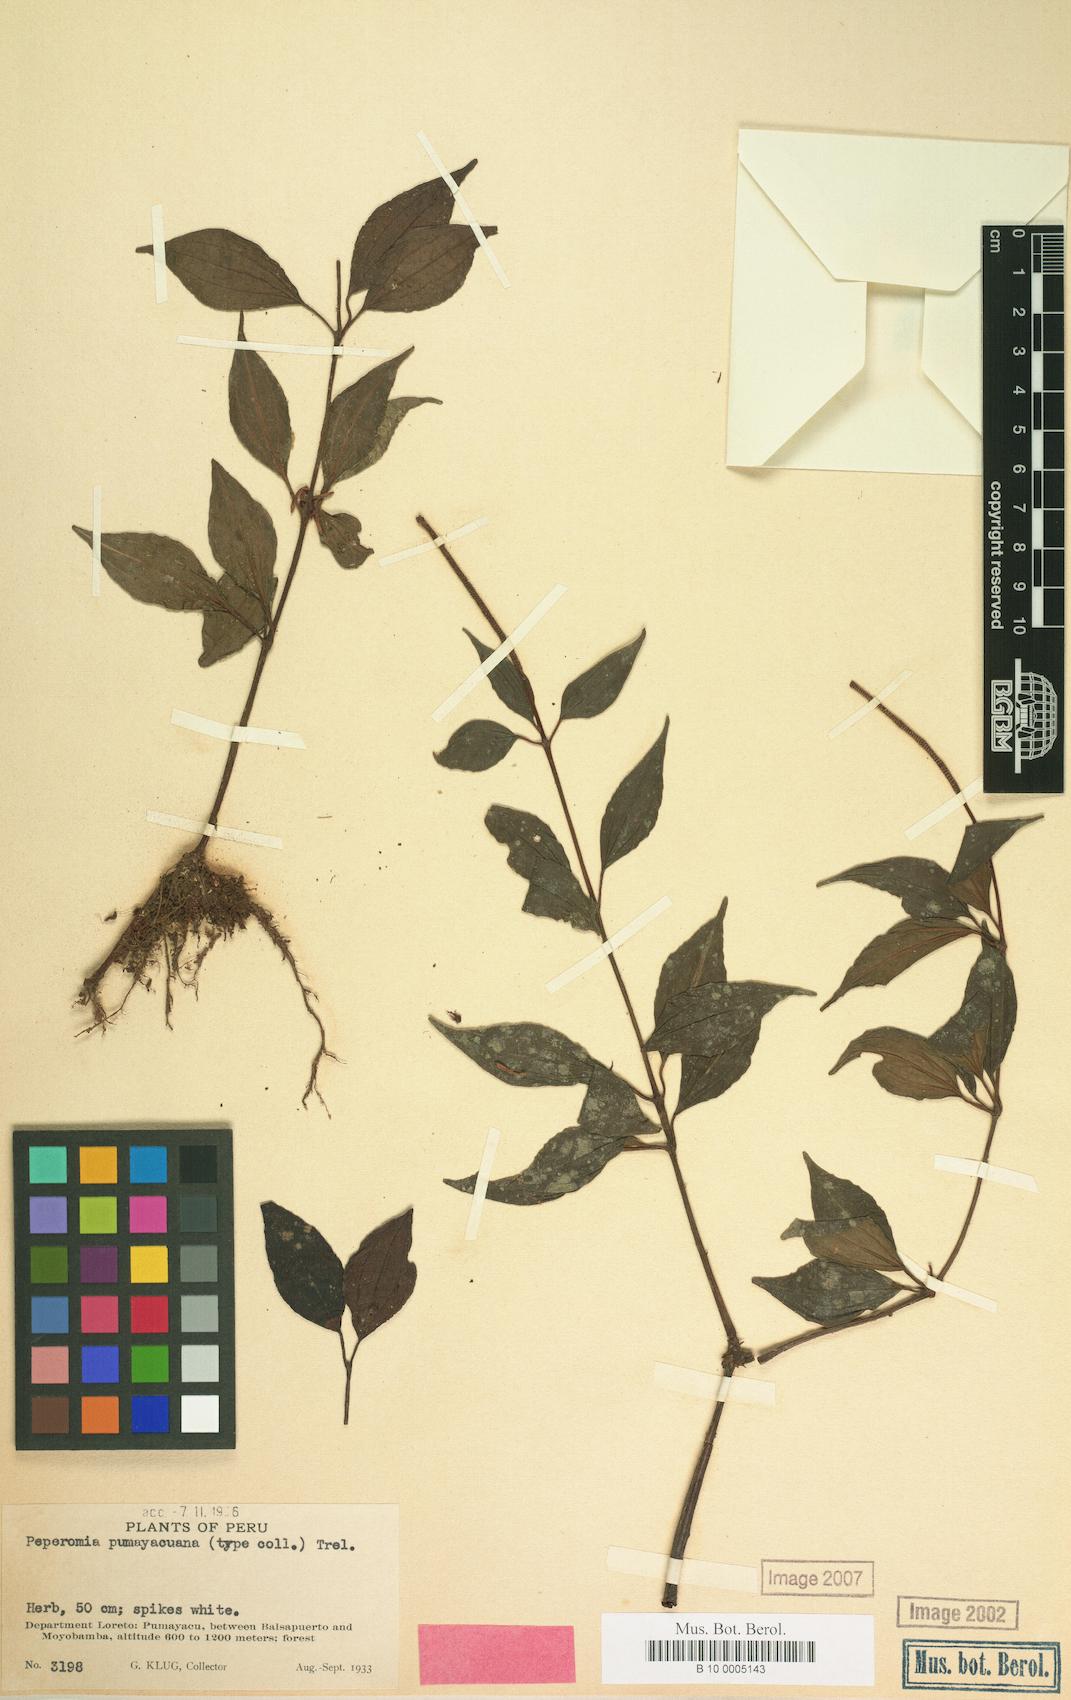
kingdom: Plantae
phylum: Tracheophyta
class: Magnoliopsida
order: Piperales
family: Piperaceae
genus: Peperomia
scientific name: Peperomia
